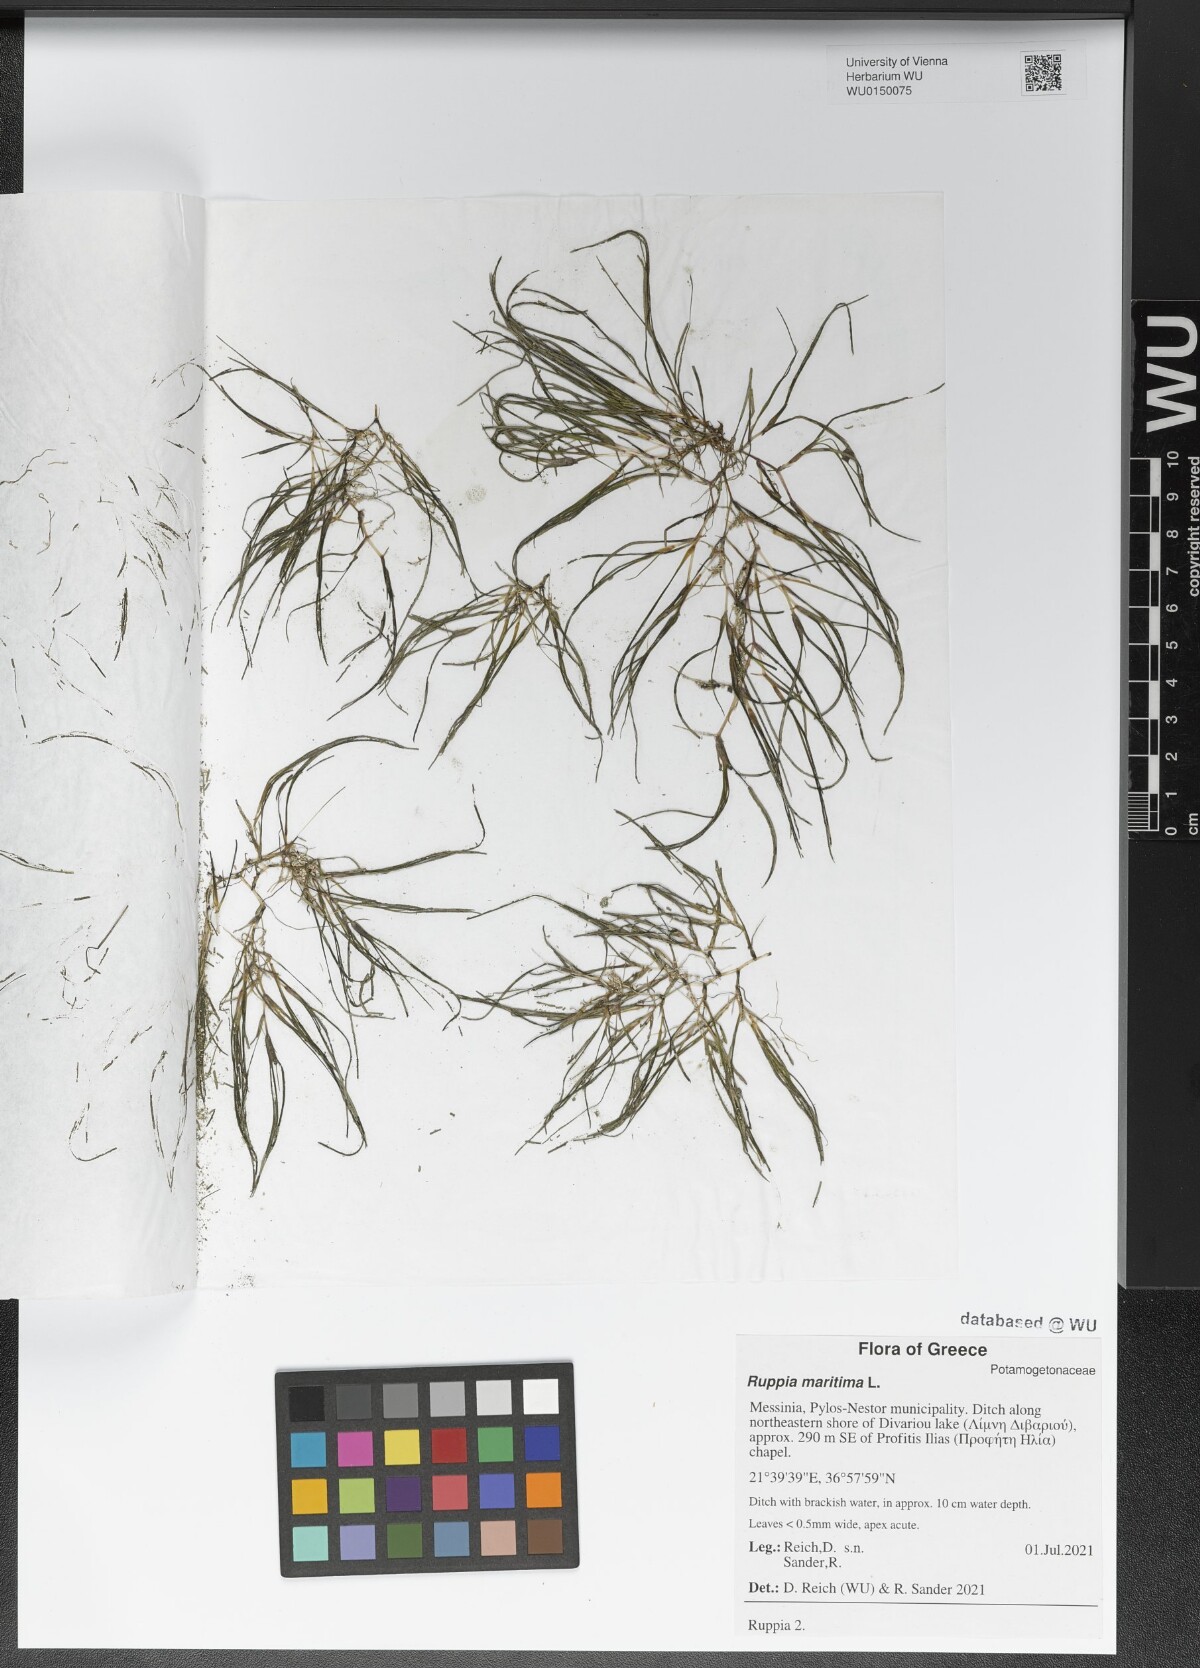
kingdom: Plantae
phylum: Tracheophyta
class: Liliopsida
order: Alismatales
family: Ruppiaceae
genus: Ruppia
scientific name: Ruppia maritima
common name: Beaked tasselweed
